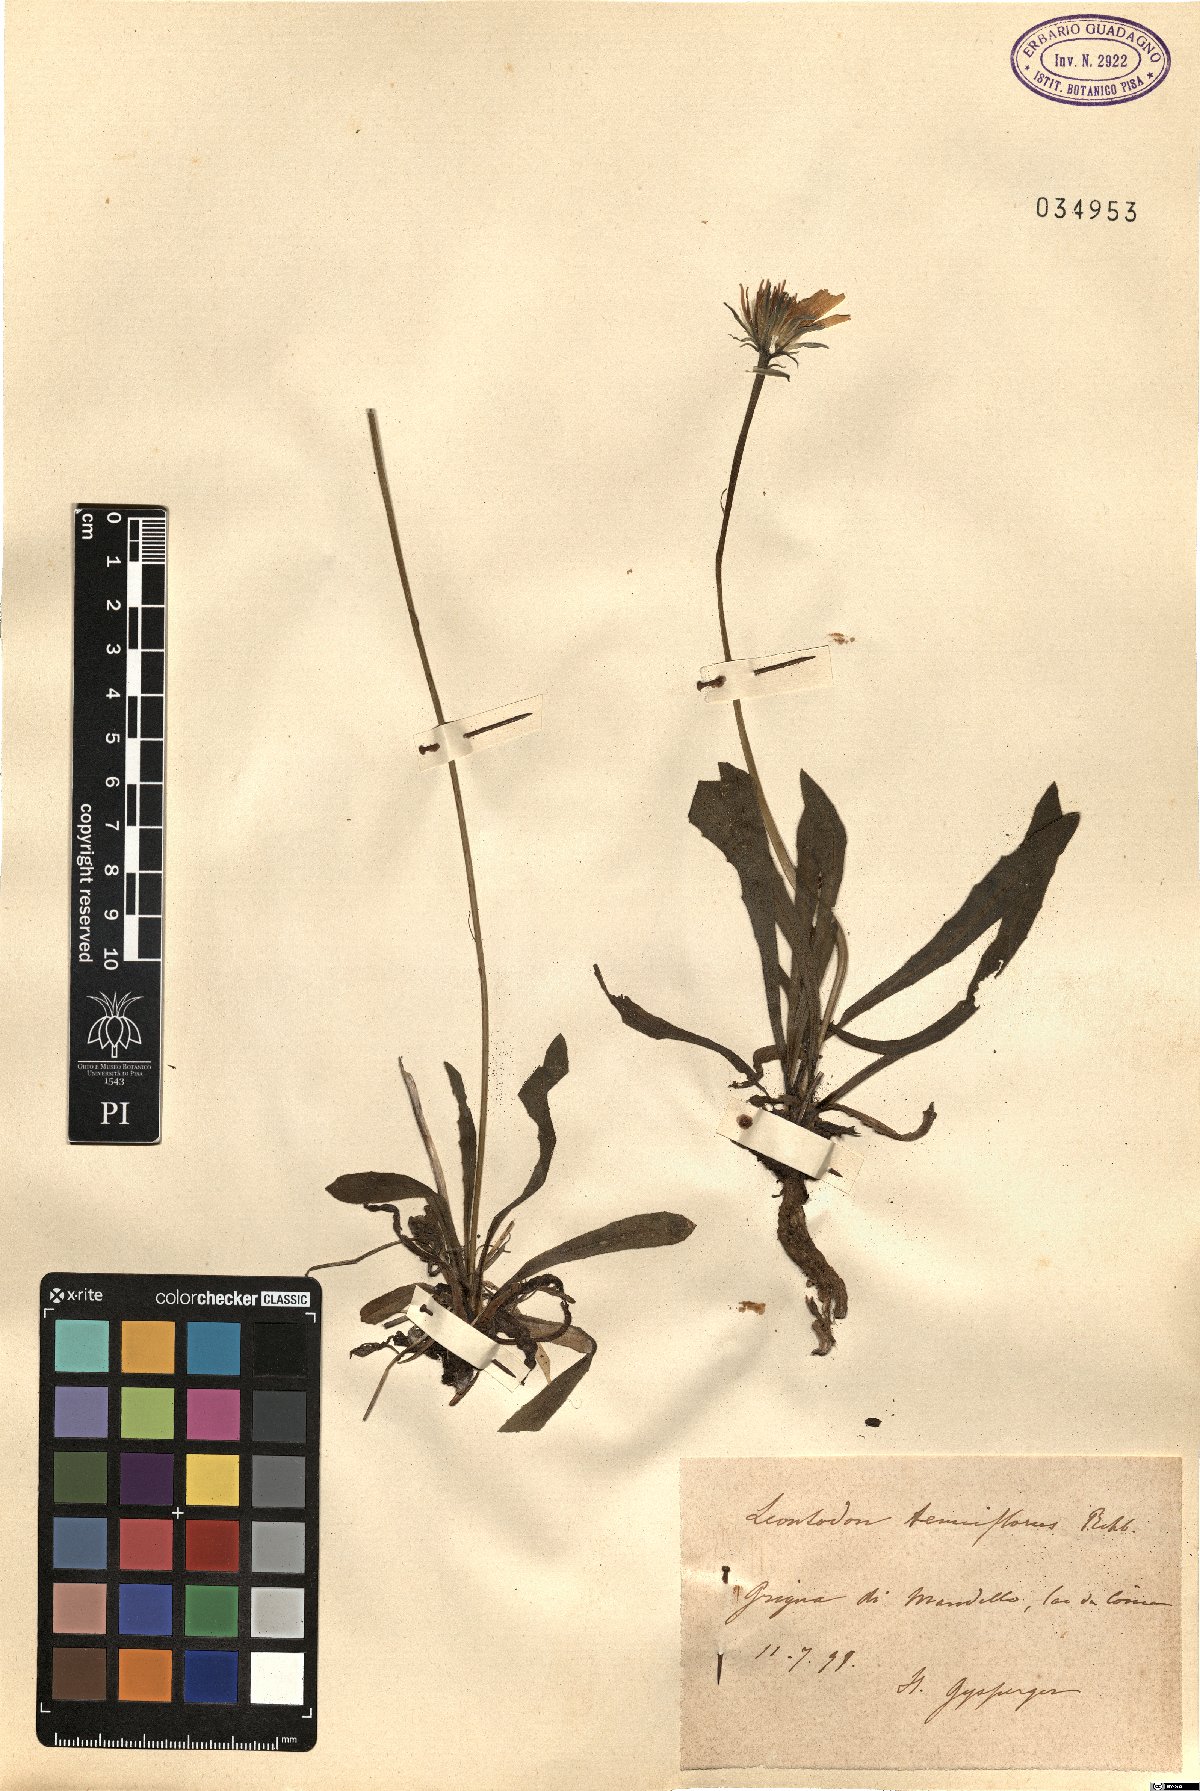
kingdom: Plantae
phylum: Tracheophyta
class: Magnoliopsida
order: Asterales
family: Asteraceae
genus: Leontodon
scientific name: Leontodon tenuiflorus
